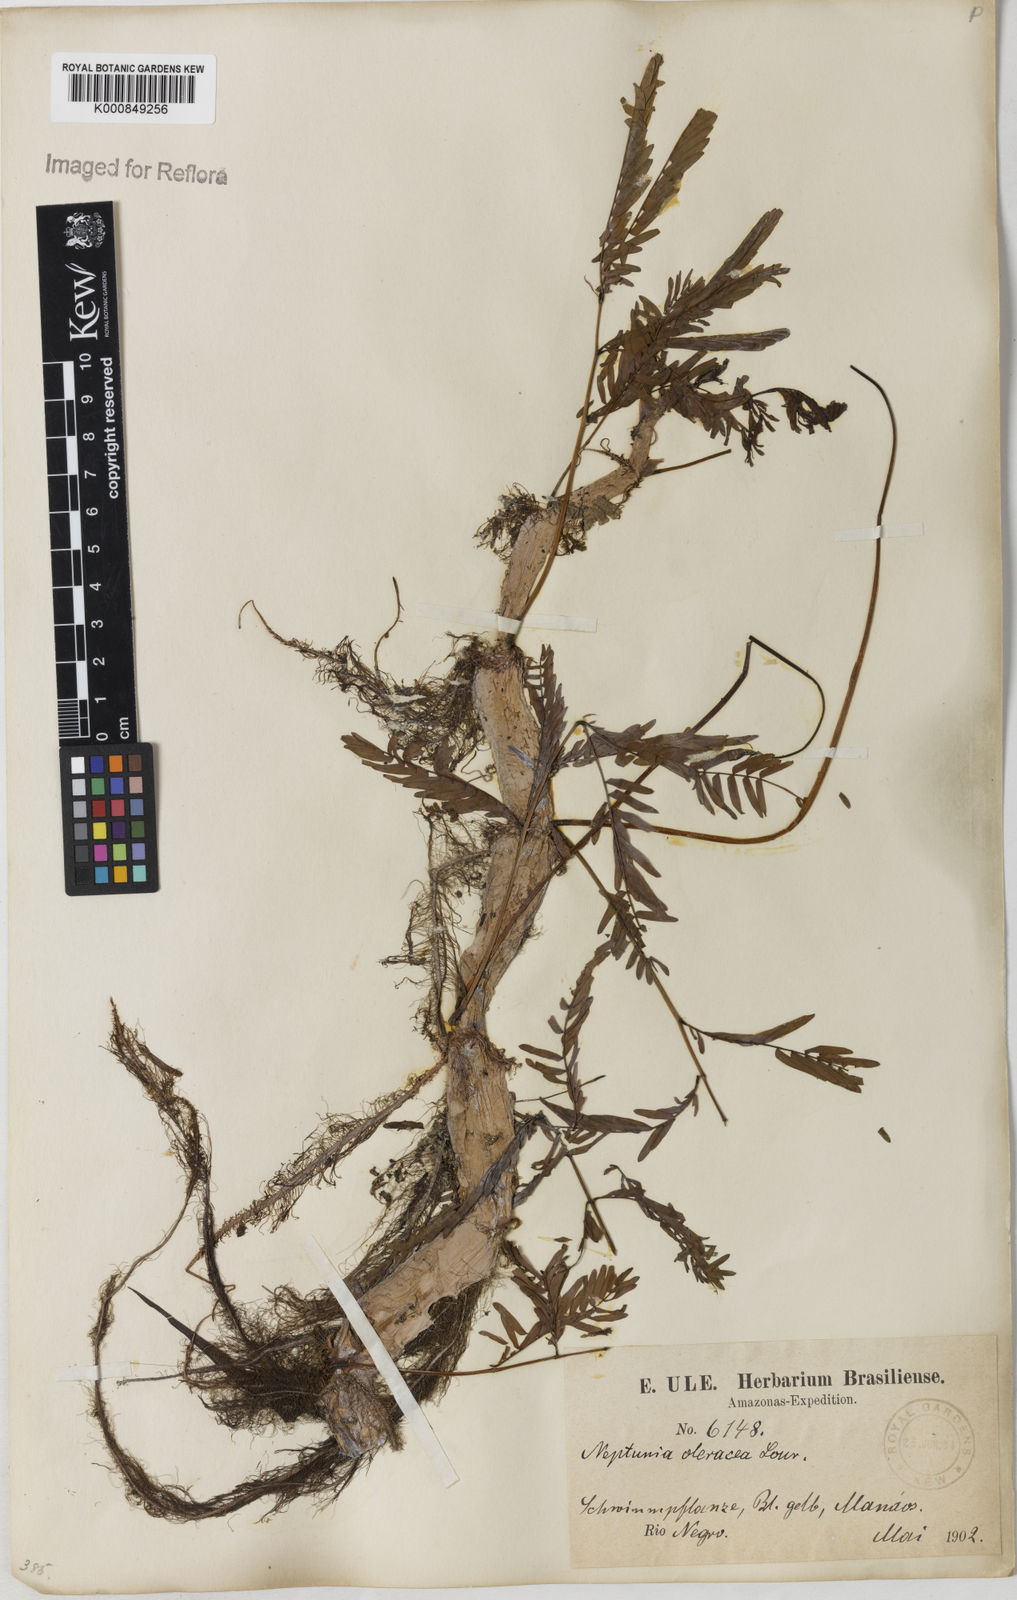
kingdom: Plantae
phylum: Tracheophyta
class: Magnoliopsida
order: Fabales
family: Fabaceae
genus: Neptunia
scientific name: Neptunia prostrata
